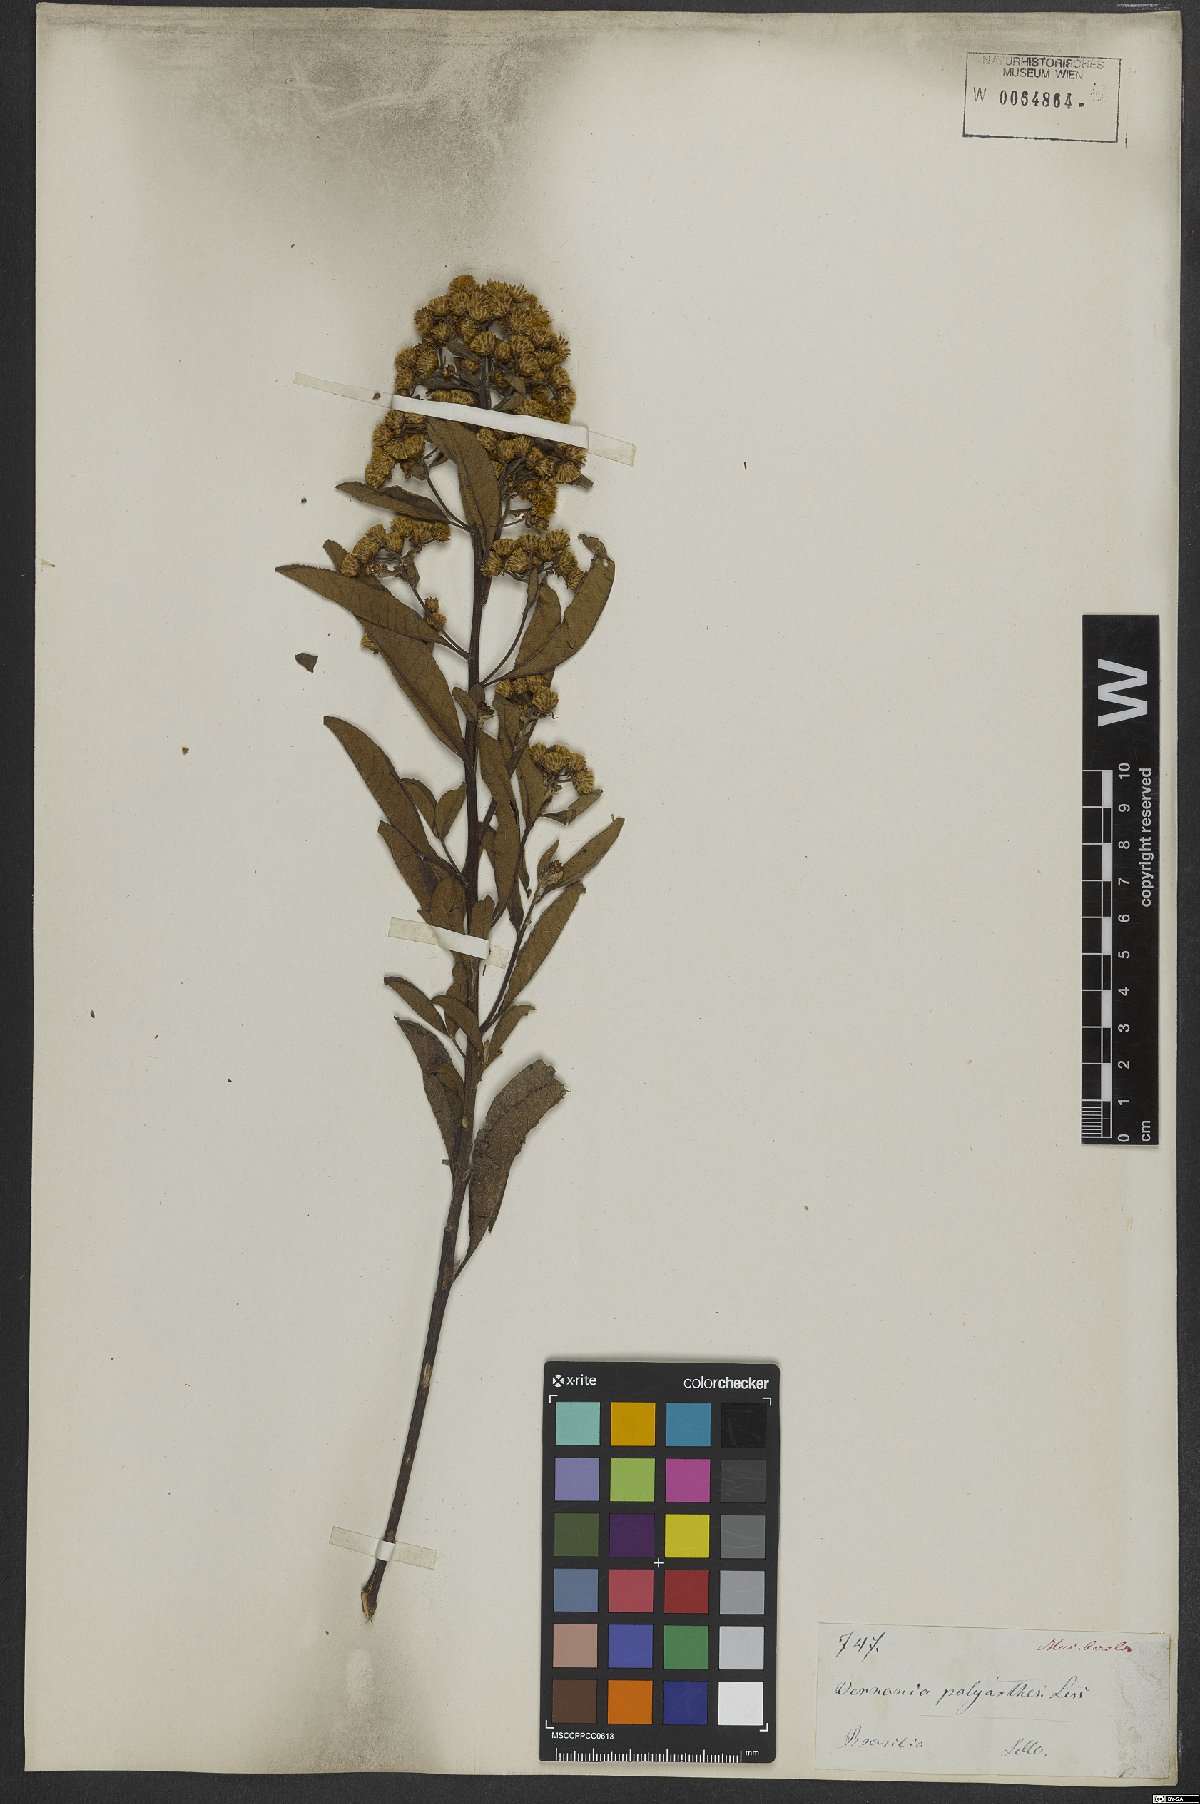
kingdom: Plantae
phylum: Tracheophyta
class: Magnoliopsida
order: Asterales
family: Asteraceae
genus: Vernonanthura
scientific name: Vernonanthura polyanthes
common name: Tree aster
